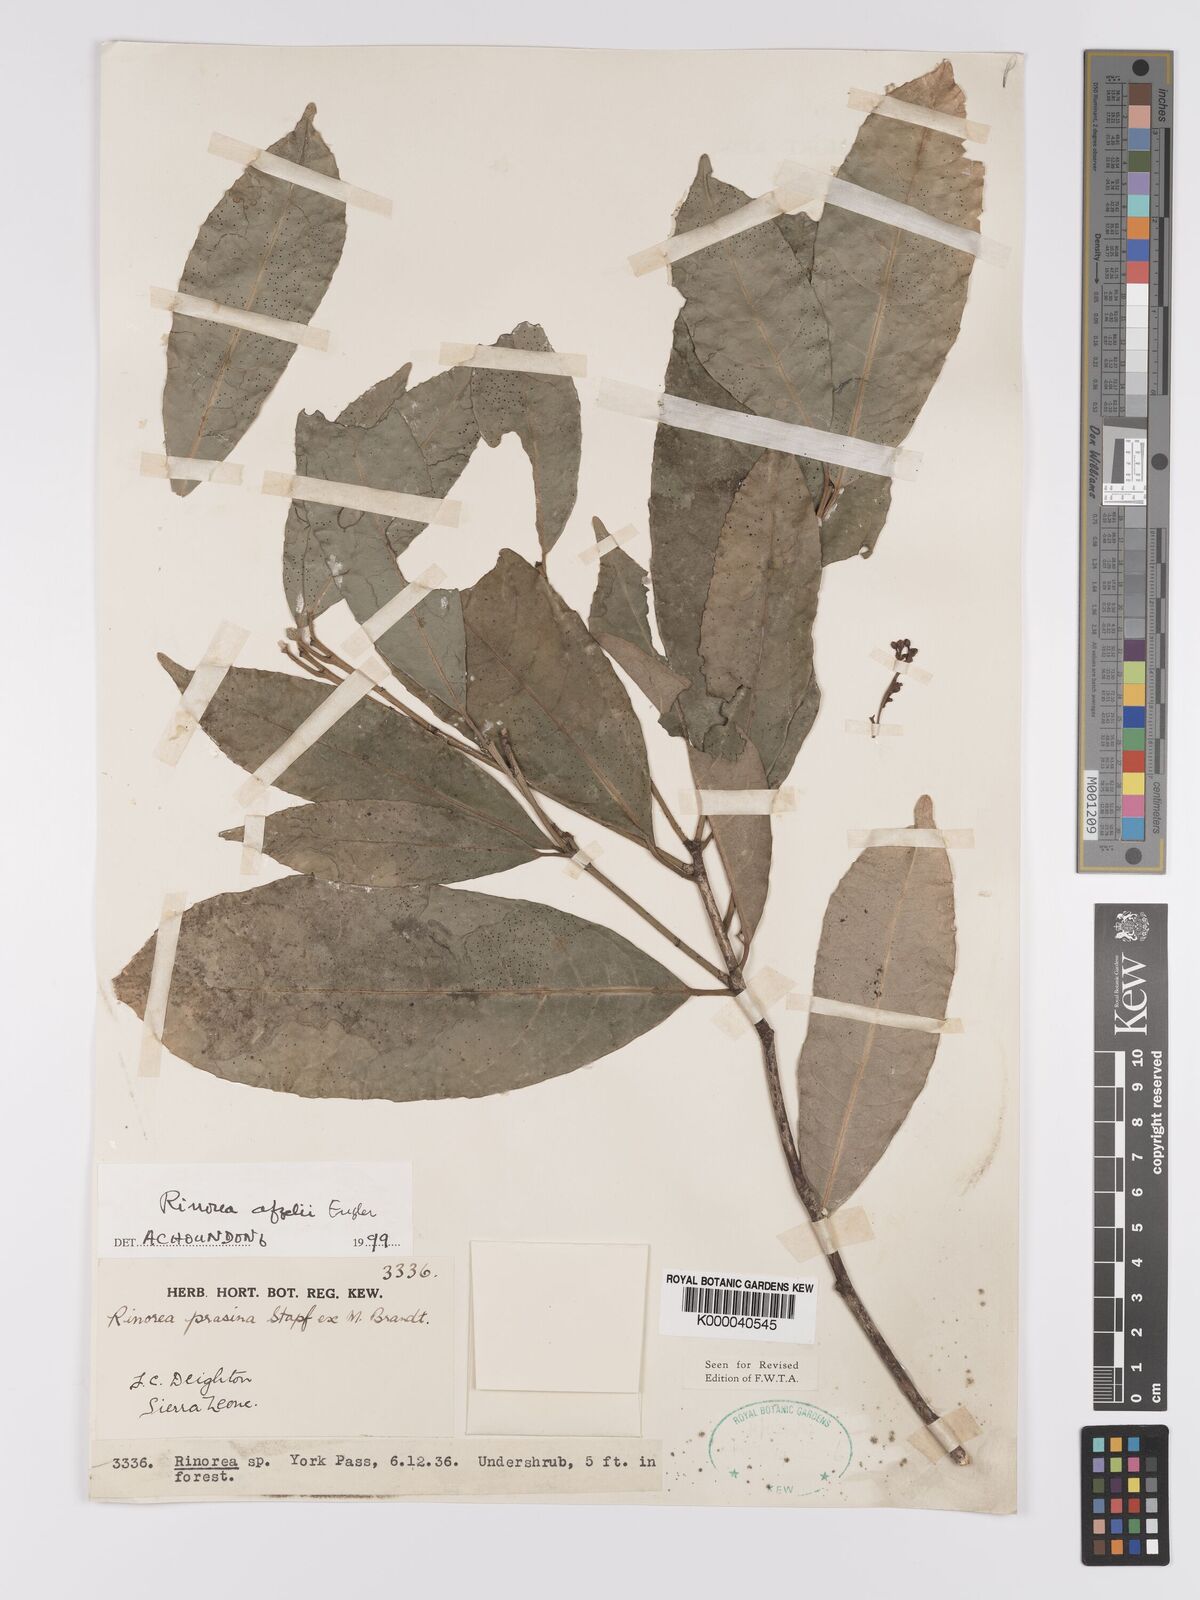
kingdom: Plantae
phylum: Tracheophyta
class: Magnoliopsida
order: Malpighiales
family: Violaceae
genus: Rinorea
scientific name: Rinorea afzelii
